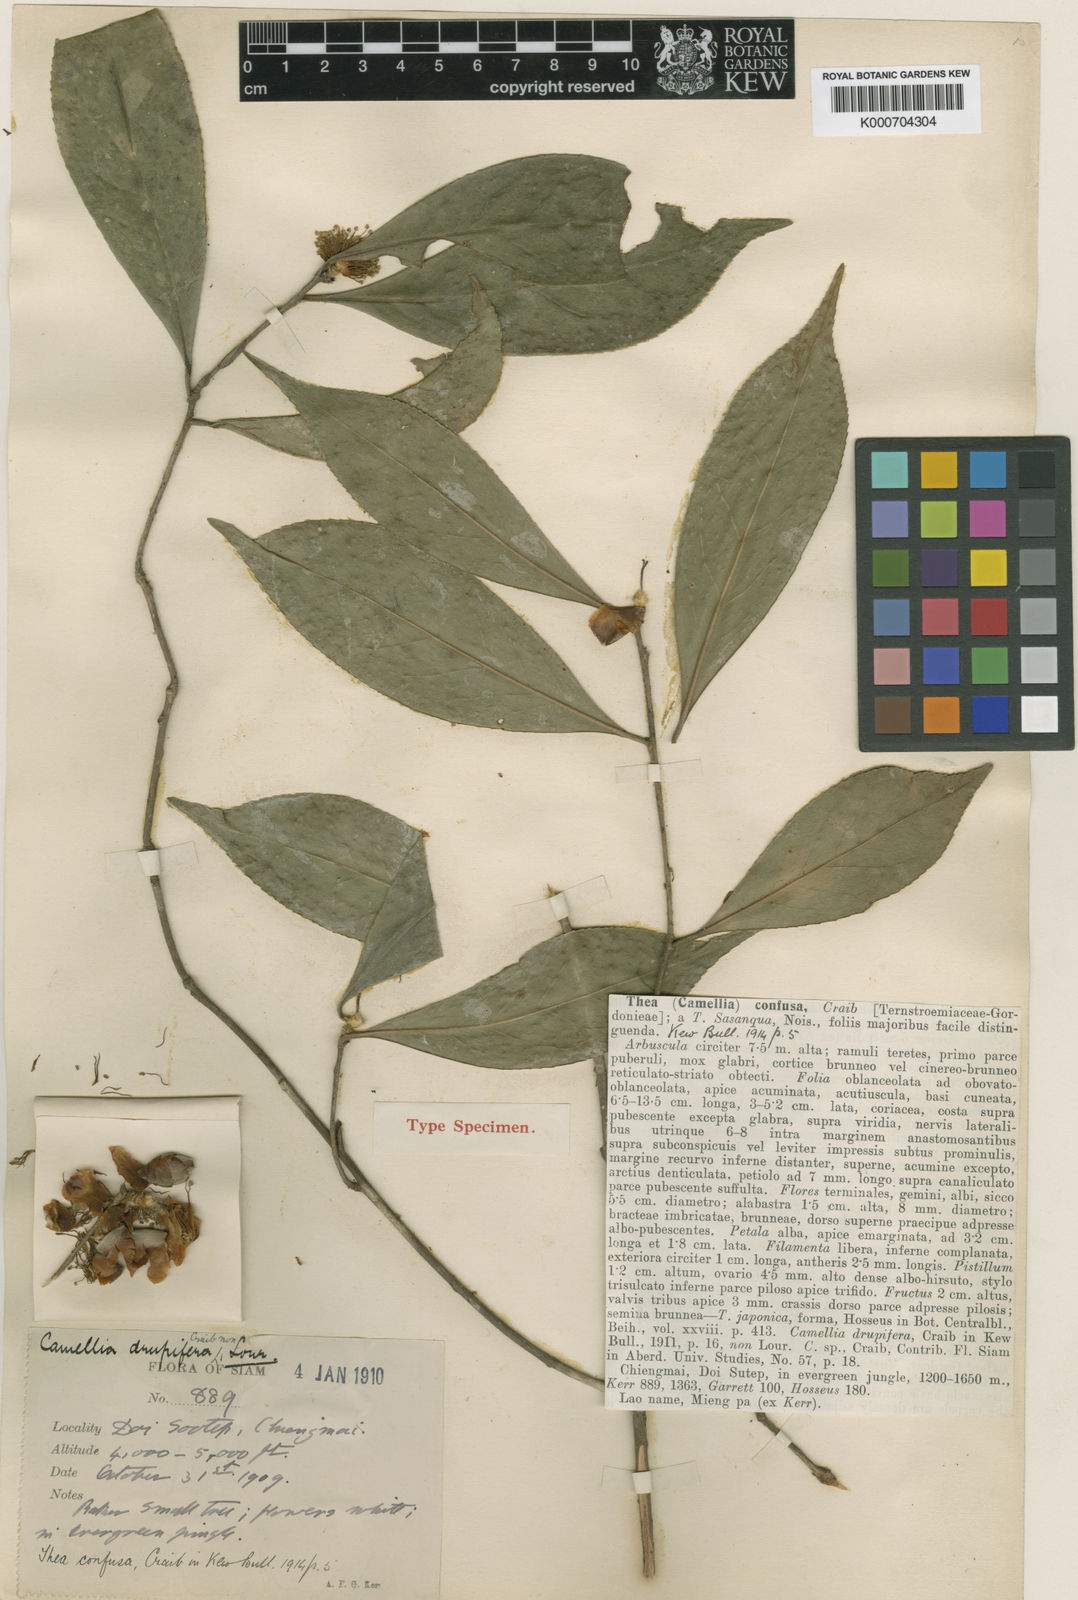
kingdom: Plantae
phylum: Tracheophyta
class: Magnoliopsida
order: Ericales
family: Theaceae
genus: Camellia
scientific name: Camellia oleifera
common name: Tea-oil-plant
